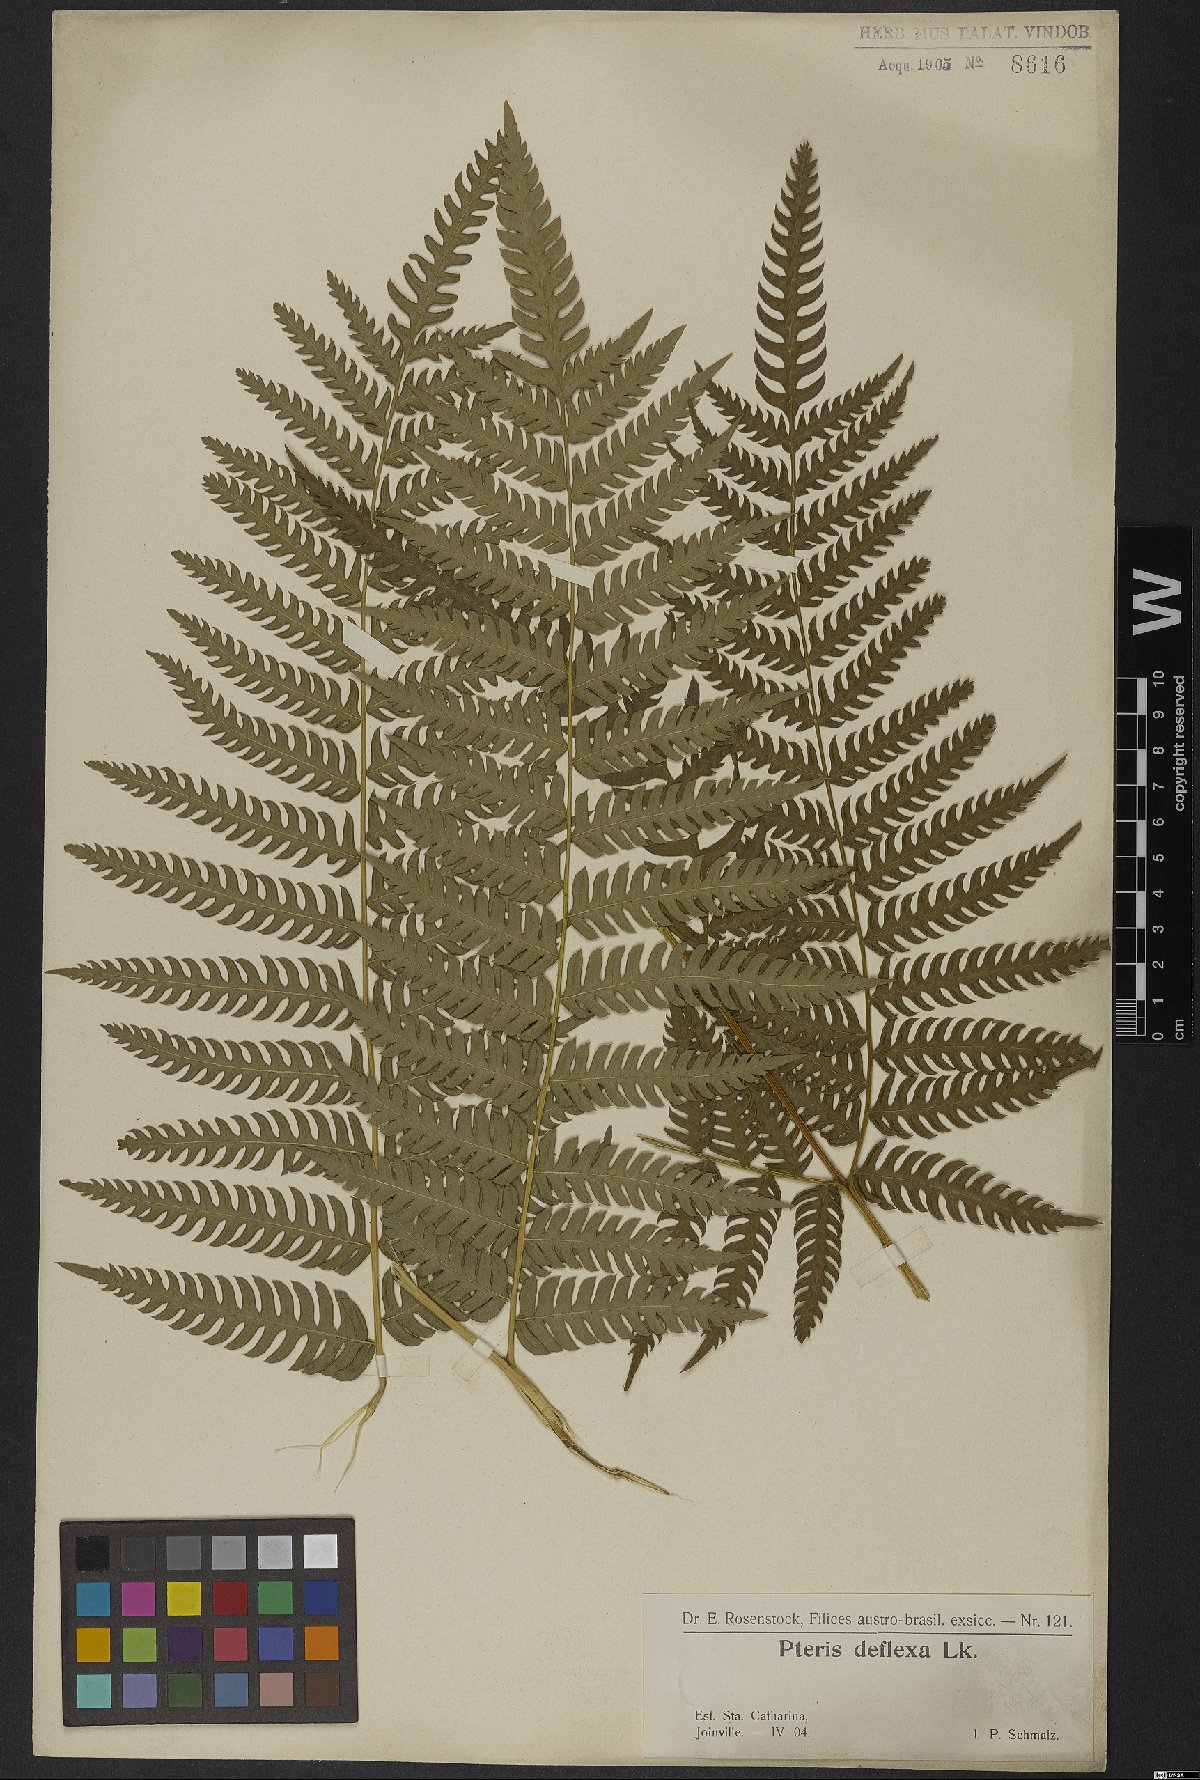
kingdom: Plantae
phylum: Tracheophyta
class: Polypodiopsida
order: Polypodiales
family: Pteridaceae
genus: Pteris
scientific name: Pteris deflexa
